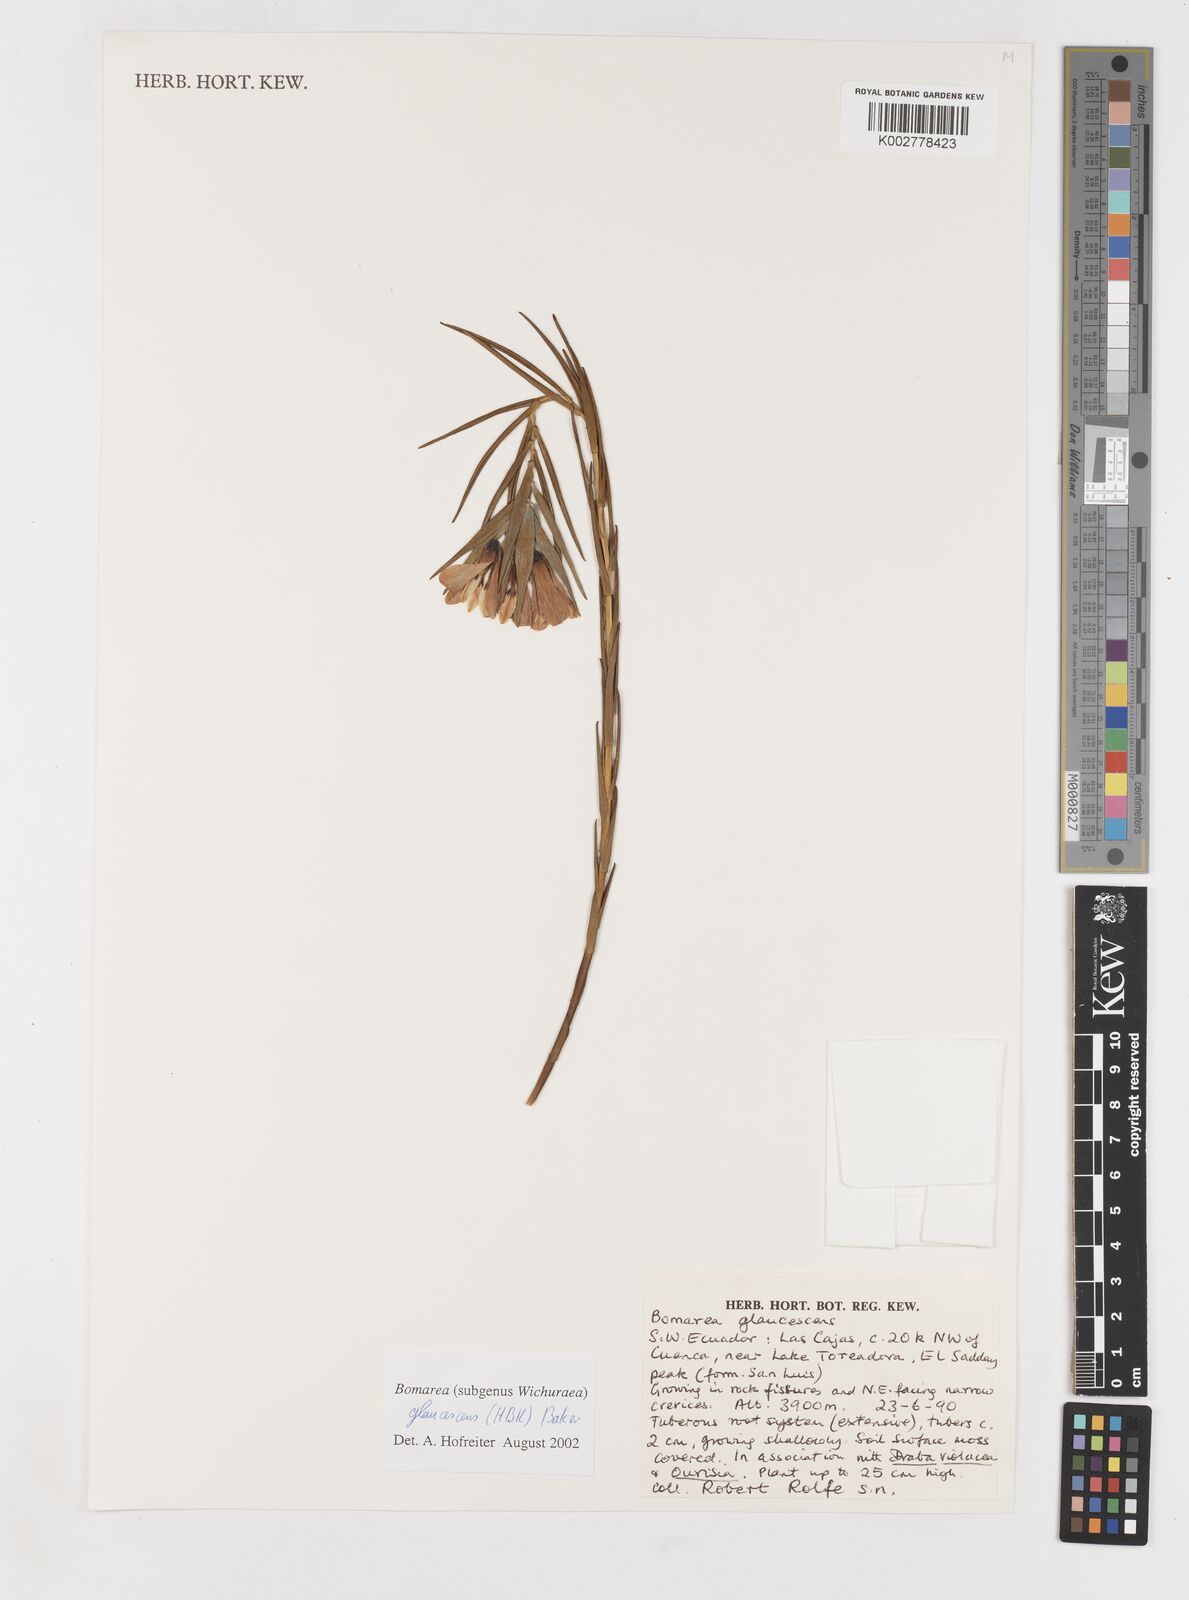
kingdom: Plantae
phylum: Tracheophyta
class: Liliopsida
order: Liliales
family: Alstroemeriaceae
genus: Bomarea
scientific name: Bomarea glaucescens
